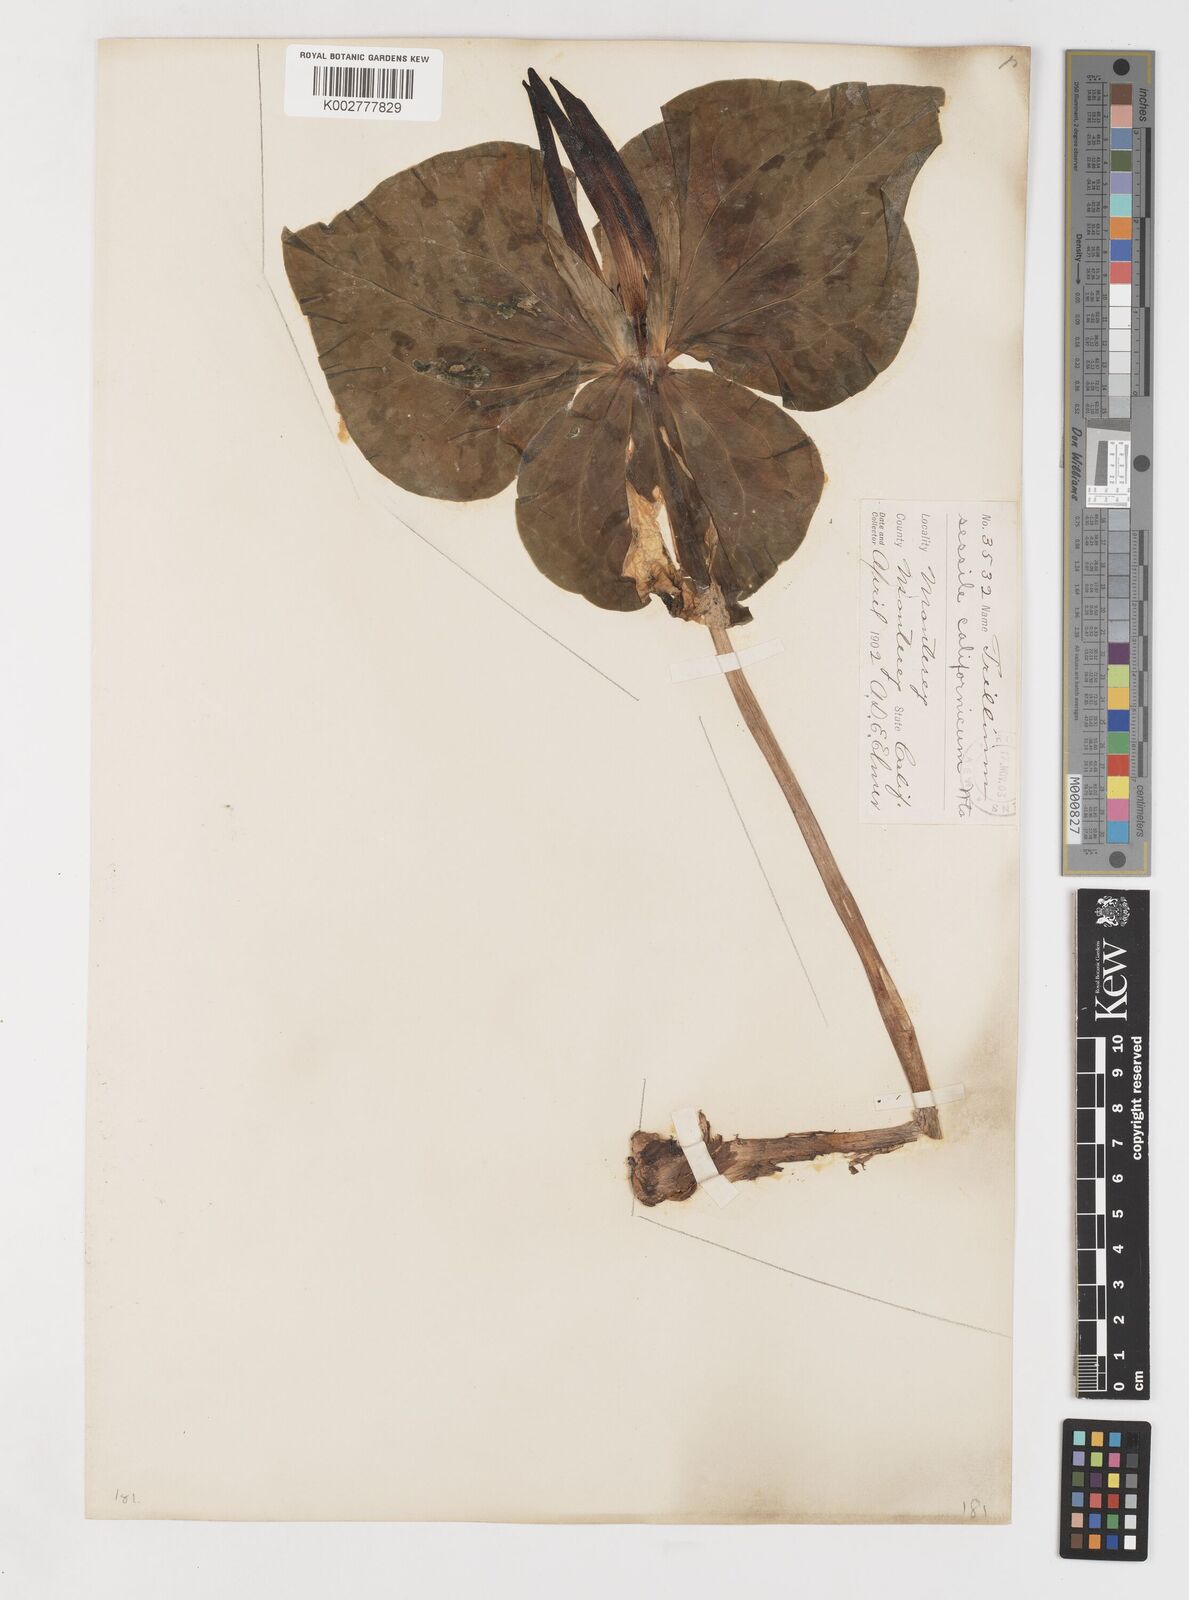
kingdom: Plantae
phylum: Tracheophyta
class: Liliopsida
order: Liliales
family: Melanthiaceae
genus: Trillium
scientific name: Trillium chloropetalum
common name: Giant trillium
